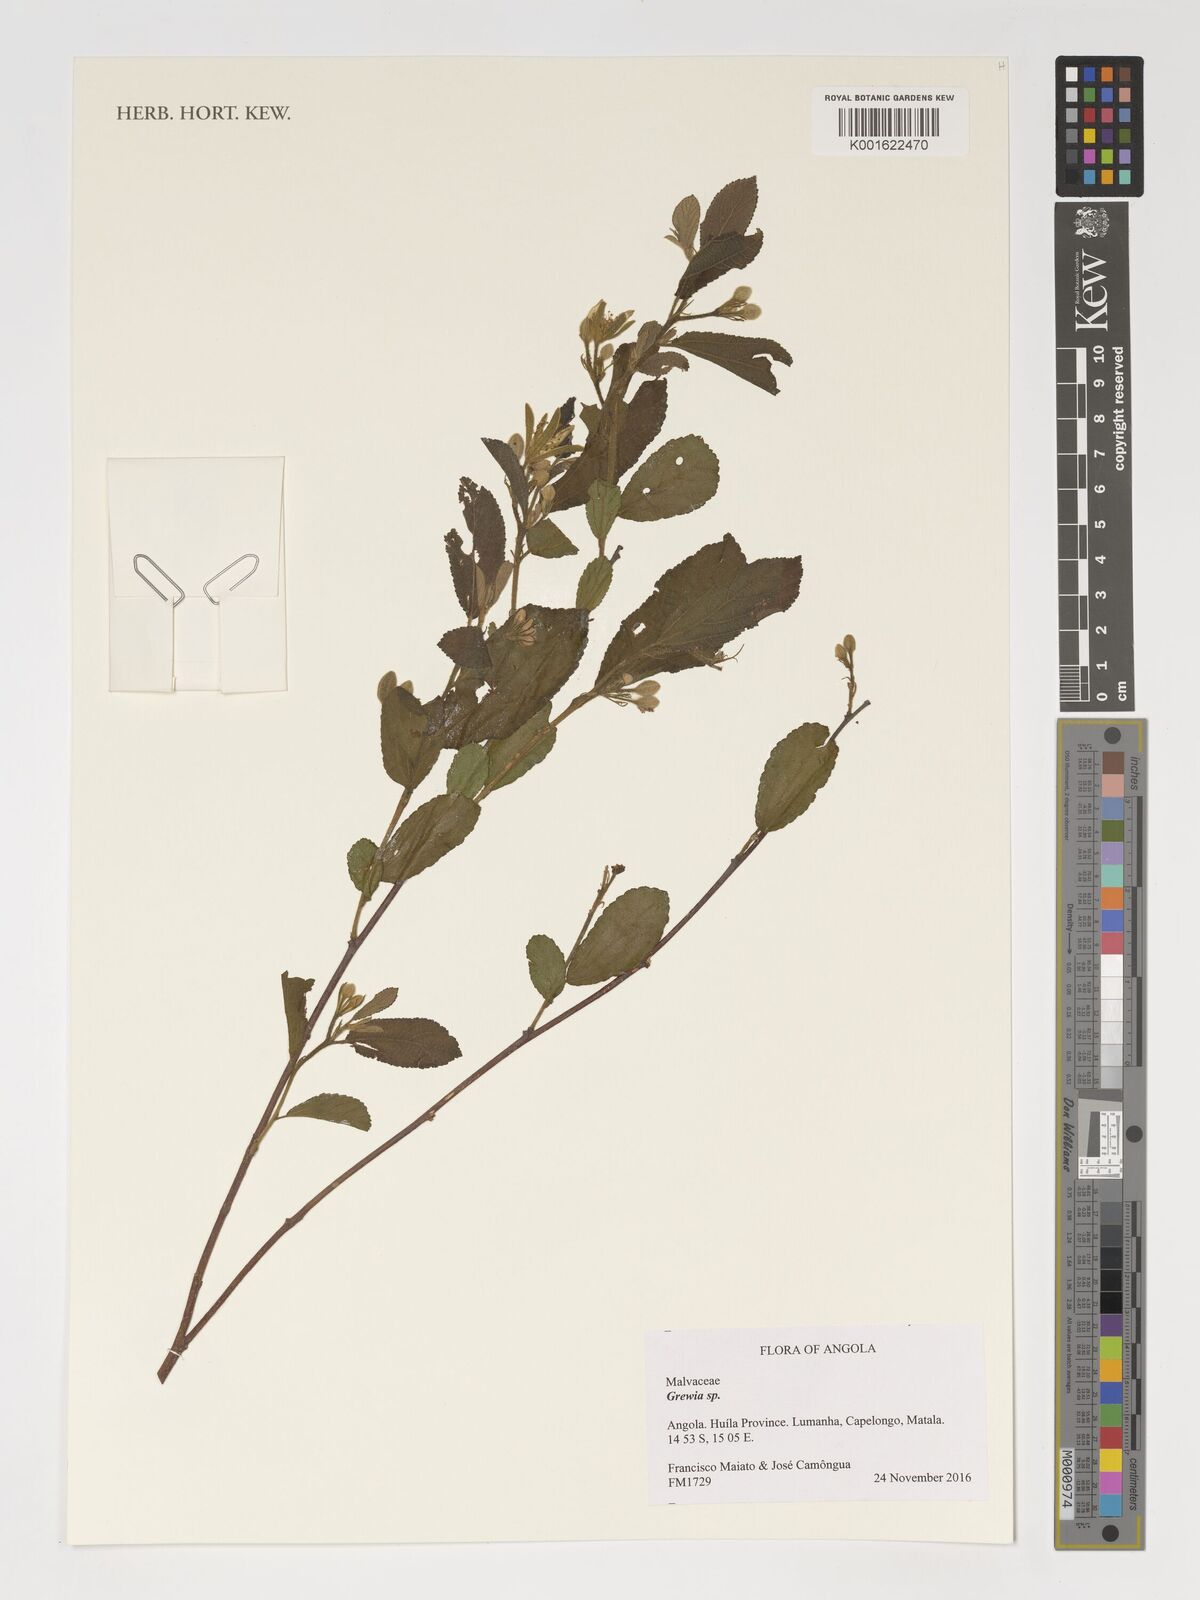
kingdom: Plantae
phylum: Tracheophyta
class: Magnoliopsida
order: Malvales
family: Malvaceae
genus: Grewia
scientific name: Grewia
